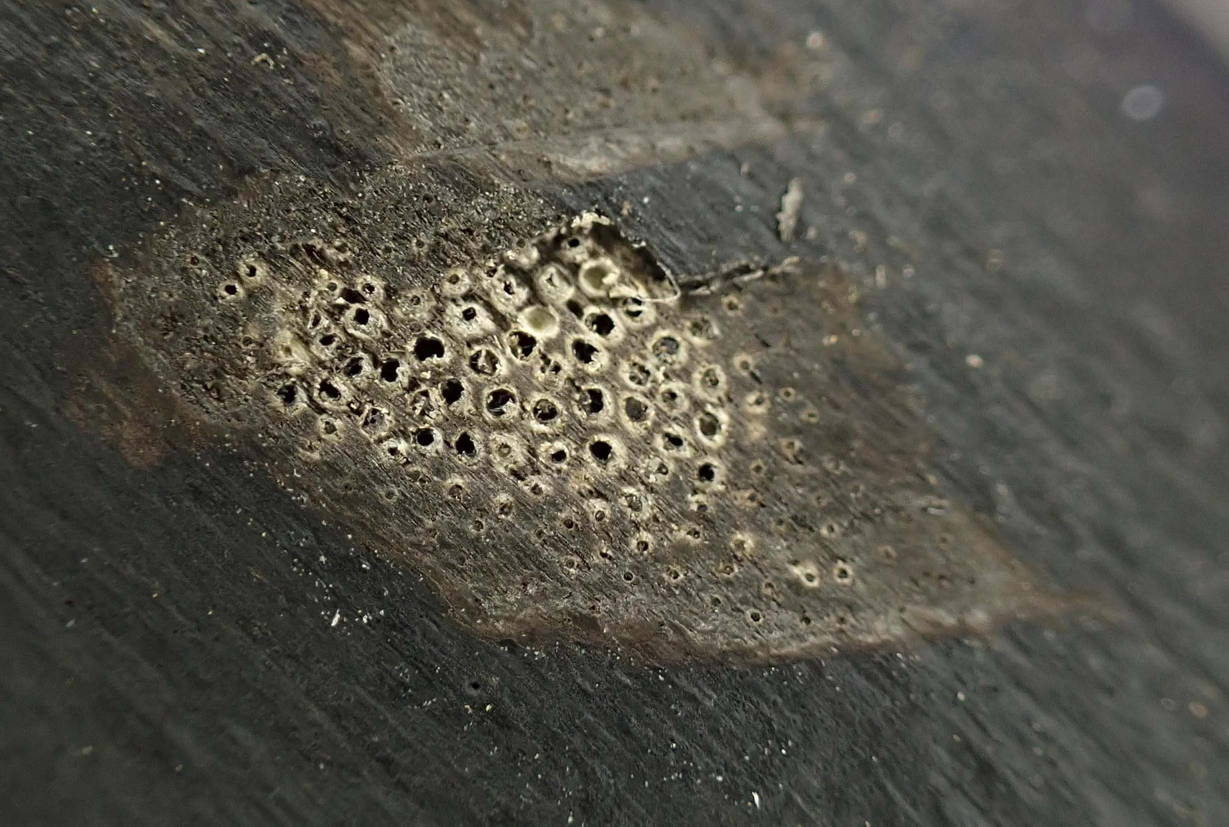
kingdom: Fungi
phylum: Ascomycota
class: Sordariomycetes
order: Xylariales
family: Diatrypaceae
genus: Eutypa
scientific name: Eutypa maura
